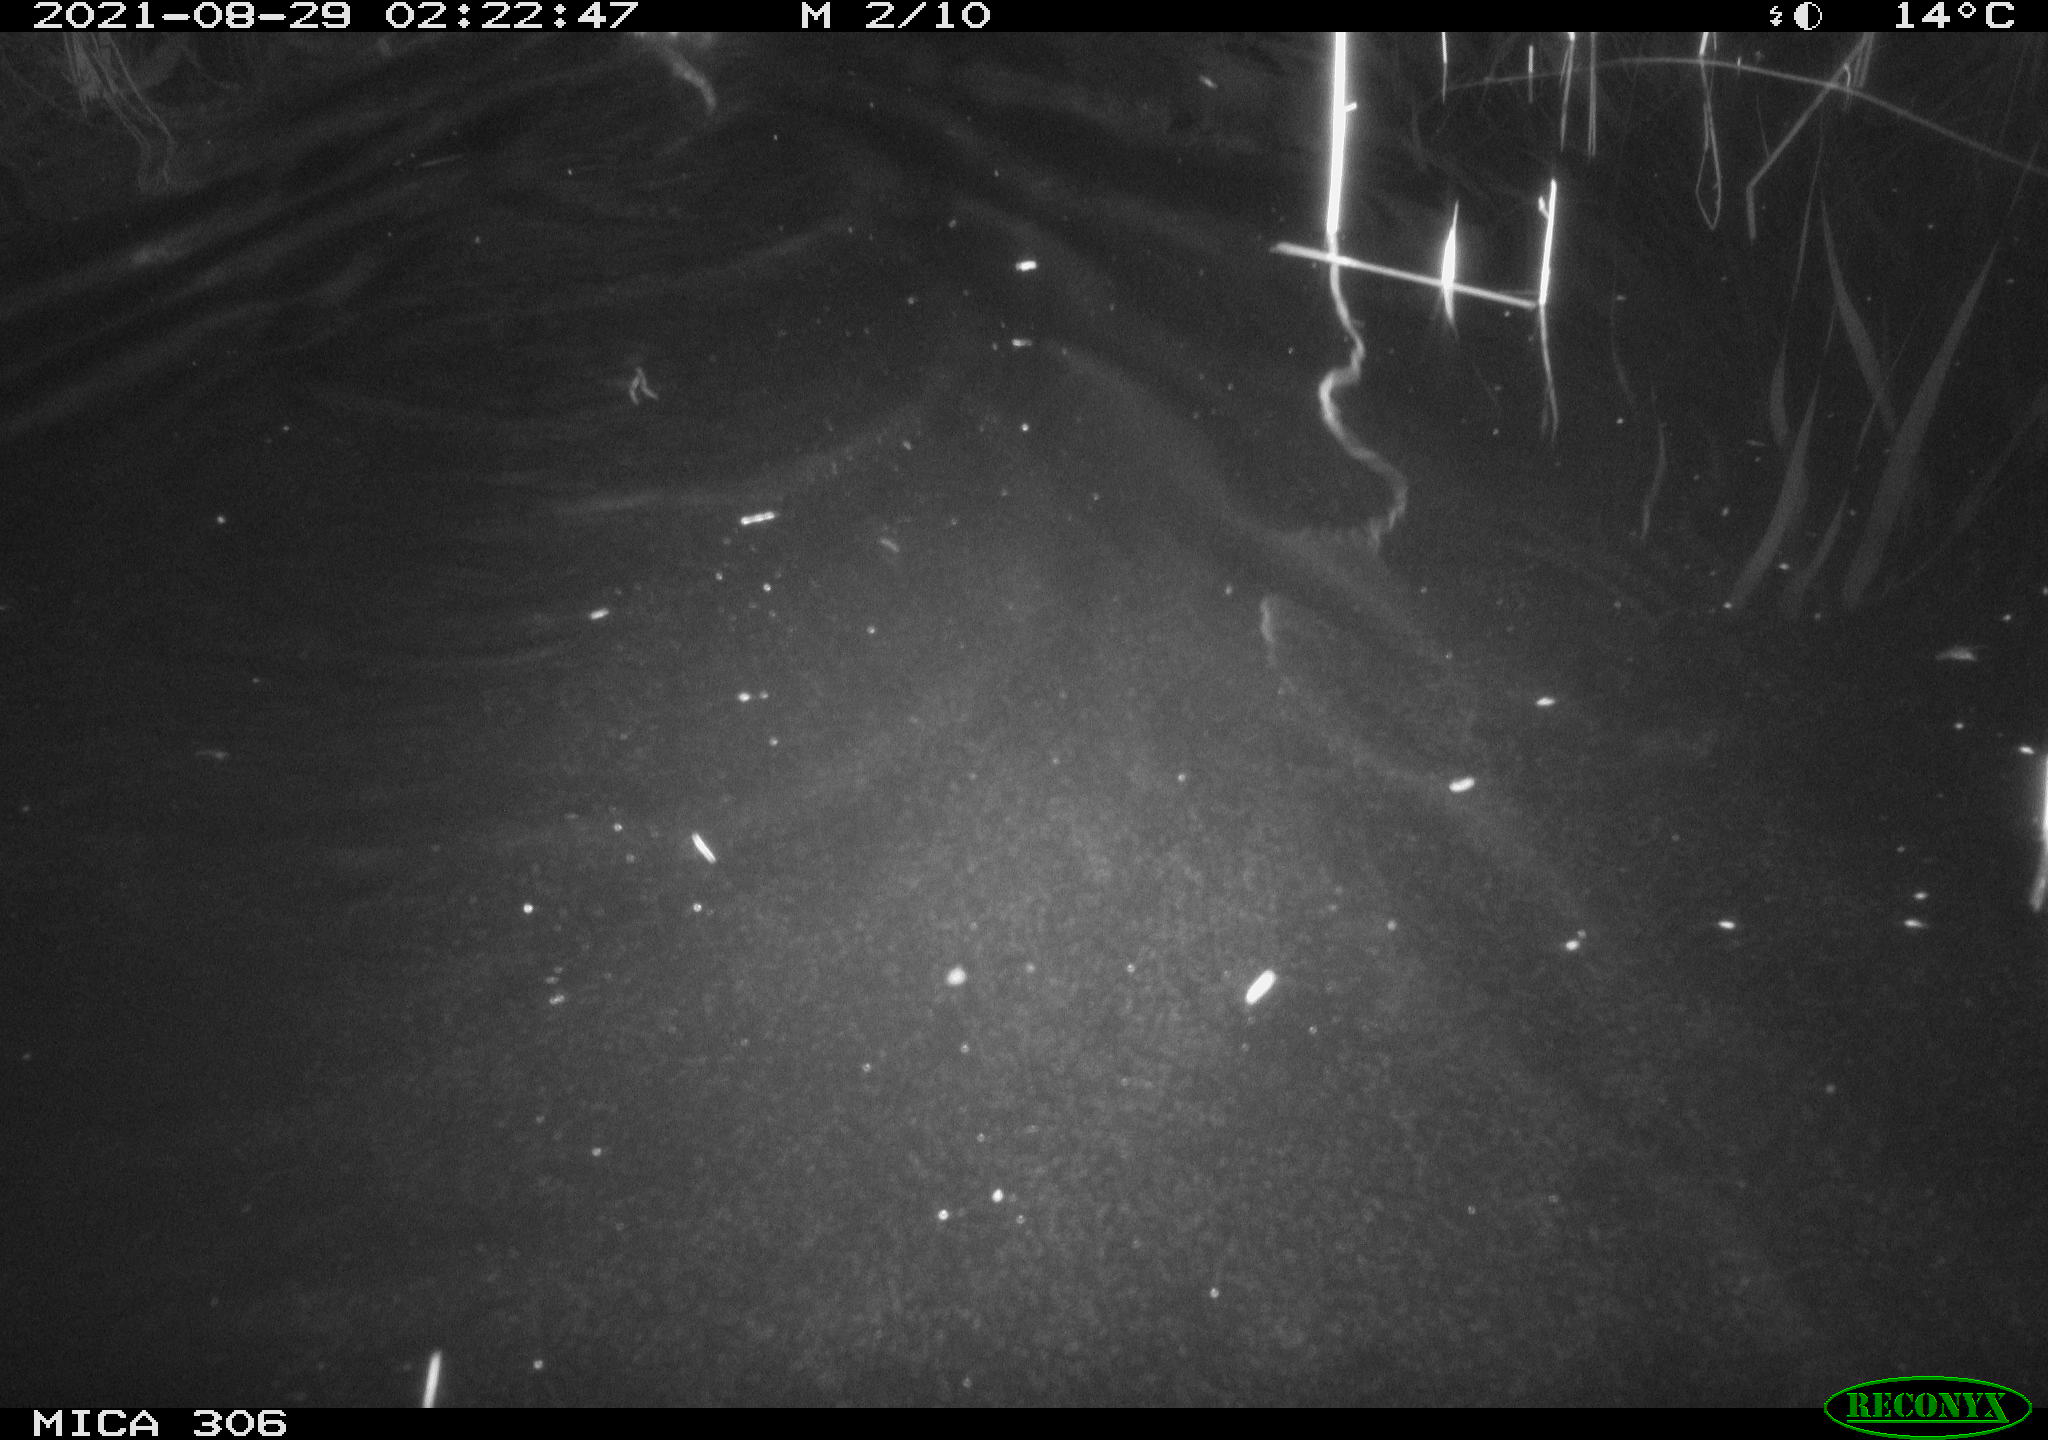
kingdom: Animalia
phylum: Chordata
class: Mammalia
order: Rodentia
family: Cricetidae
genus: Ondatra
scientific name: Ondatra zibethicus
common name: Muskrat
